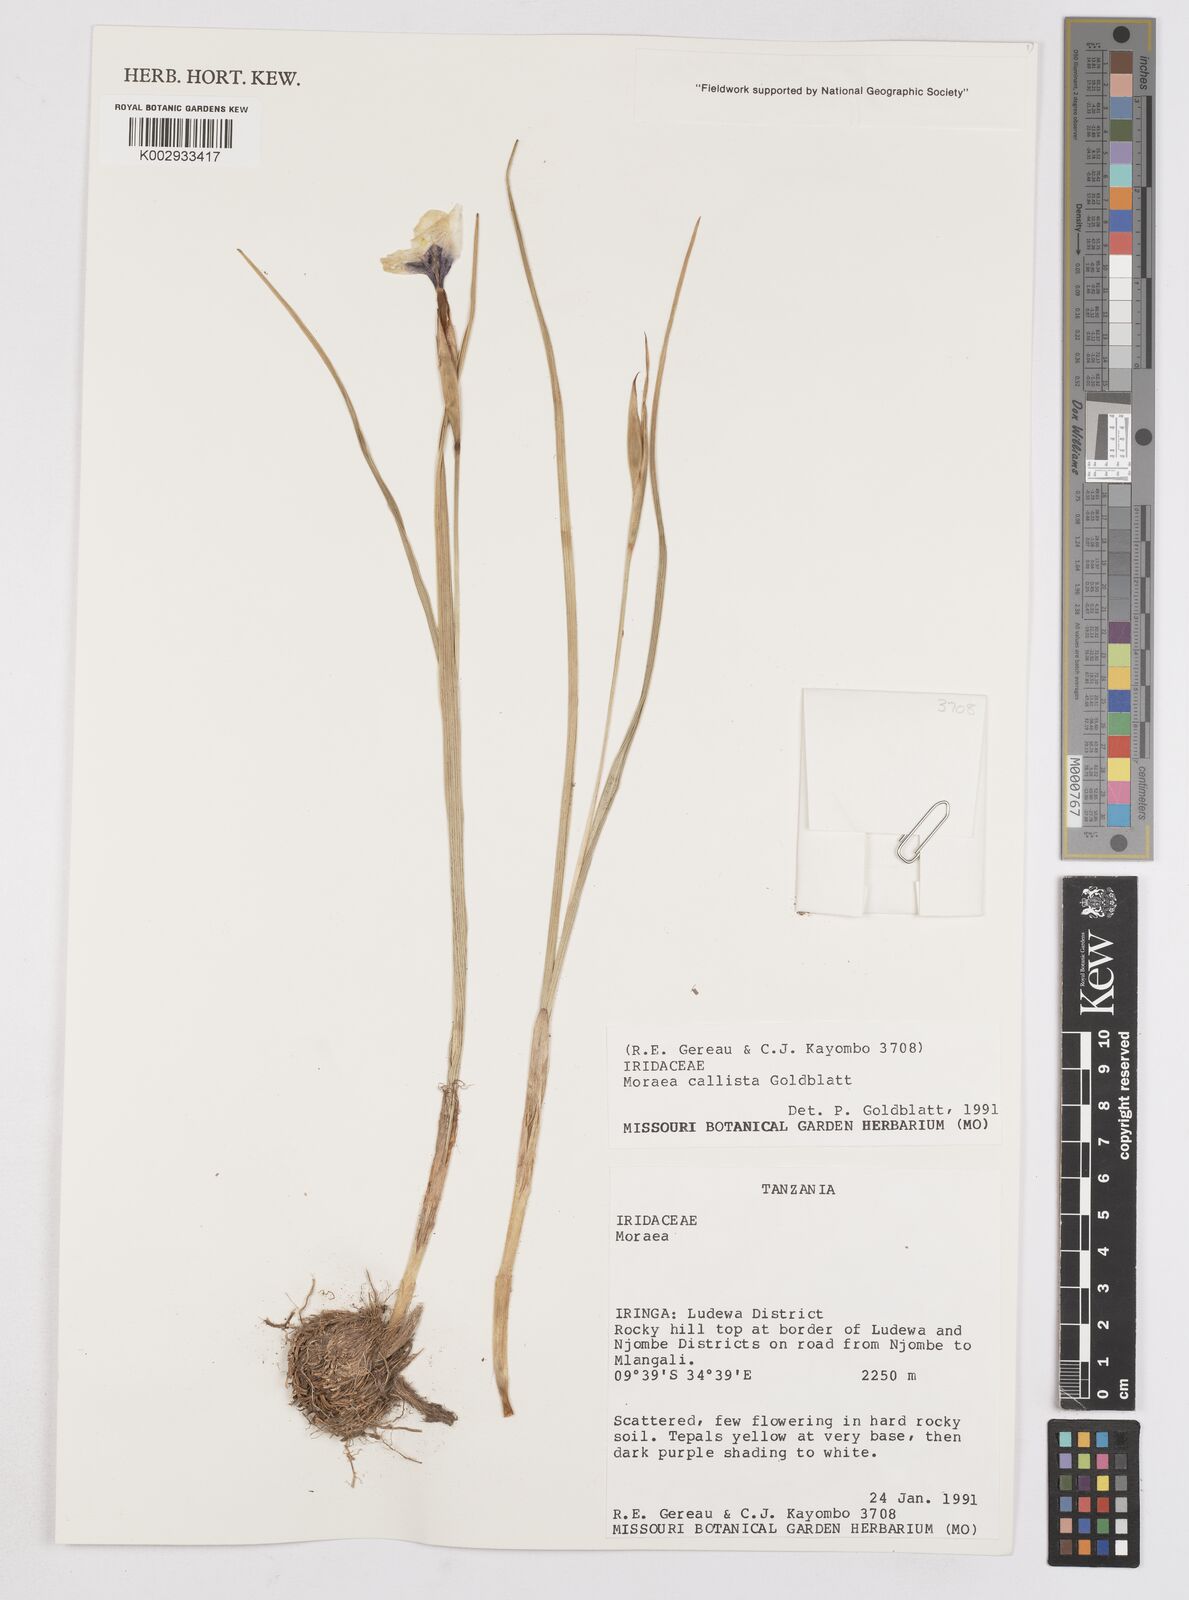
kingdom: Plantae
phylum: Tracheophyta
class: Liliopsida
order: Asparagales
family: Iridaceae
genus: Moraea
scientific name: Moraea callista
